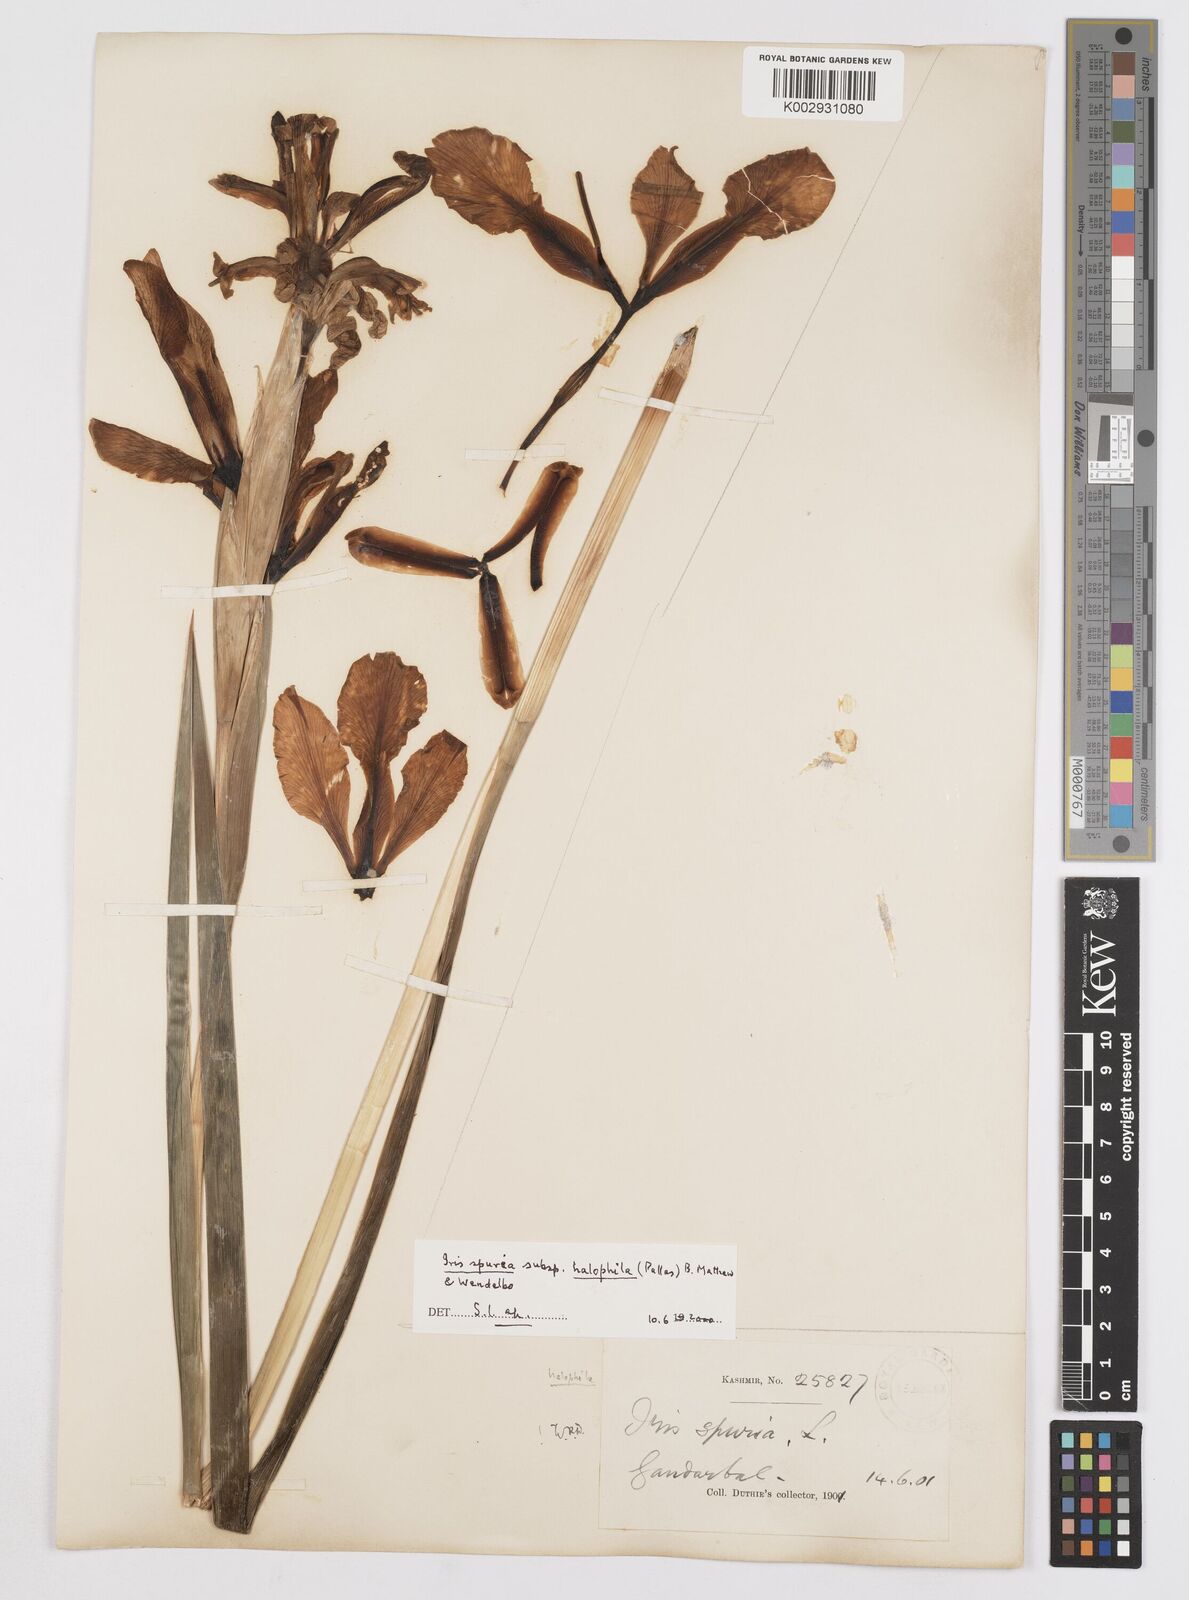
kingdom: Plantae
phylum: Tracheophyta
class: Liliopsida
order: Asparagales
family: Iridaceae
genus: Iris
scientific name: Iris spuria
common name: Blue iris
